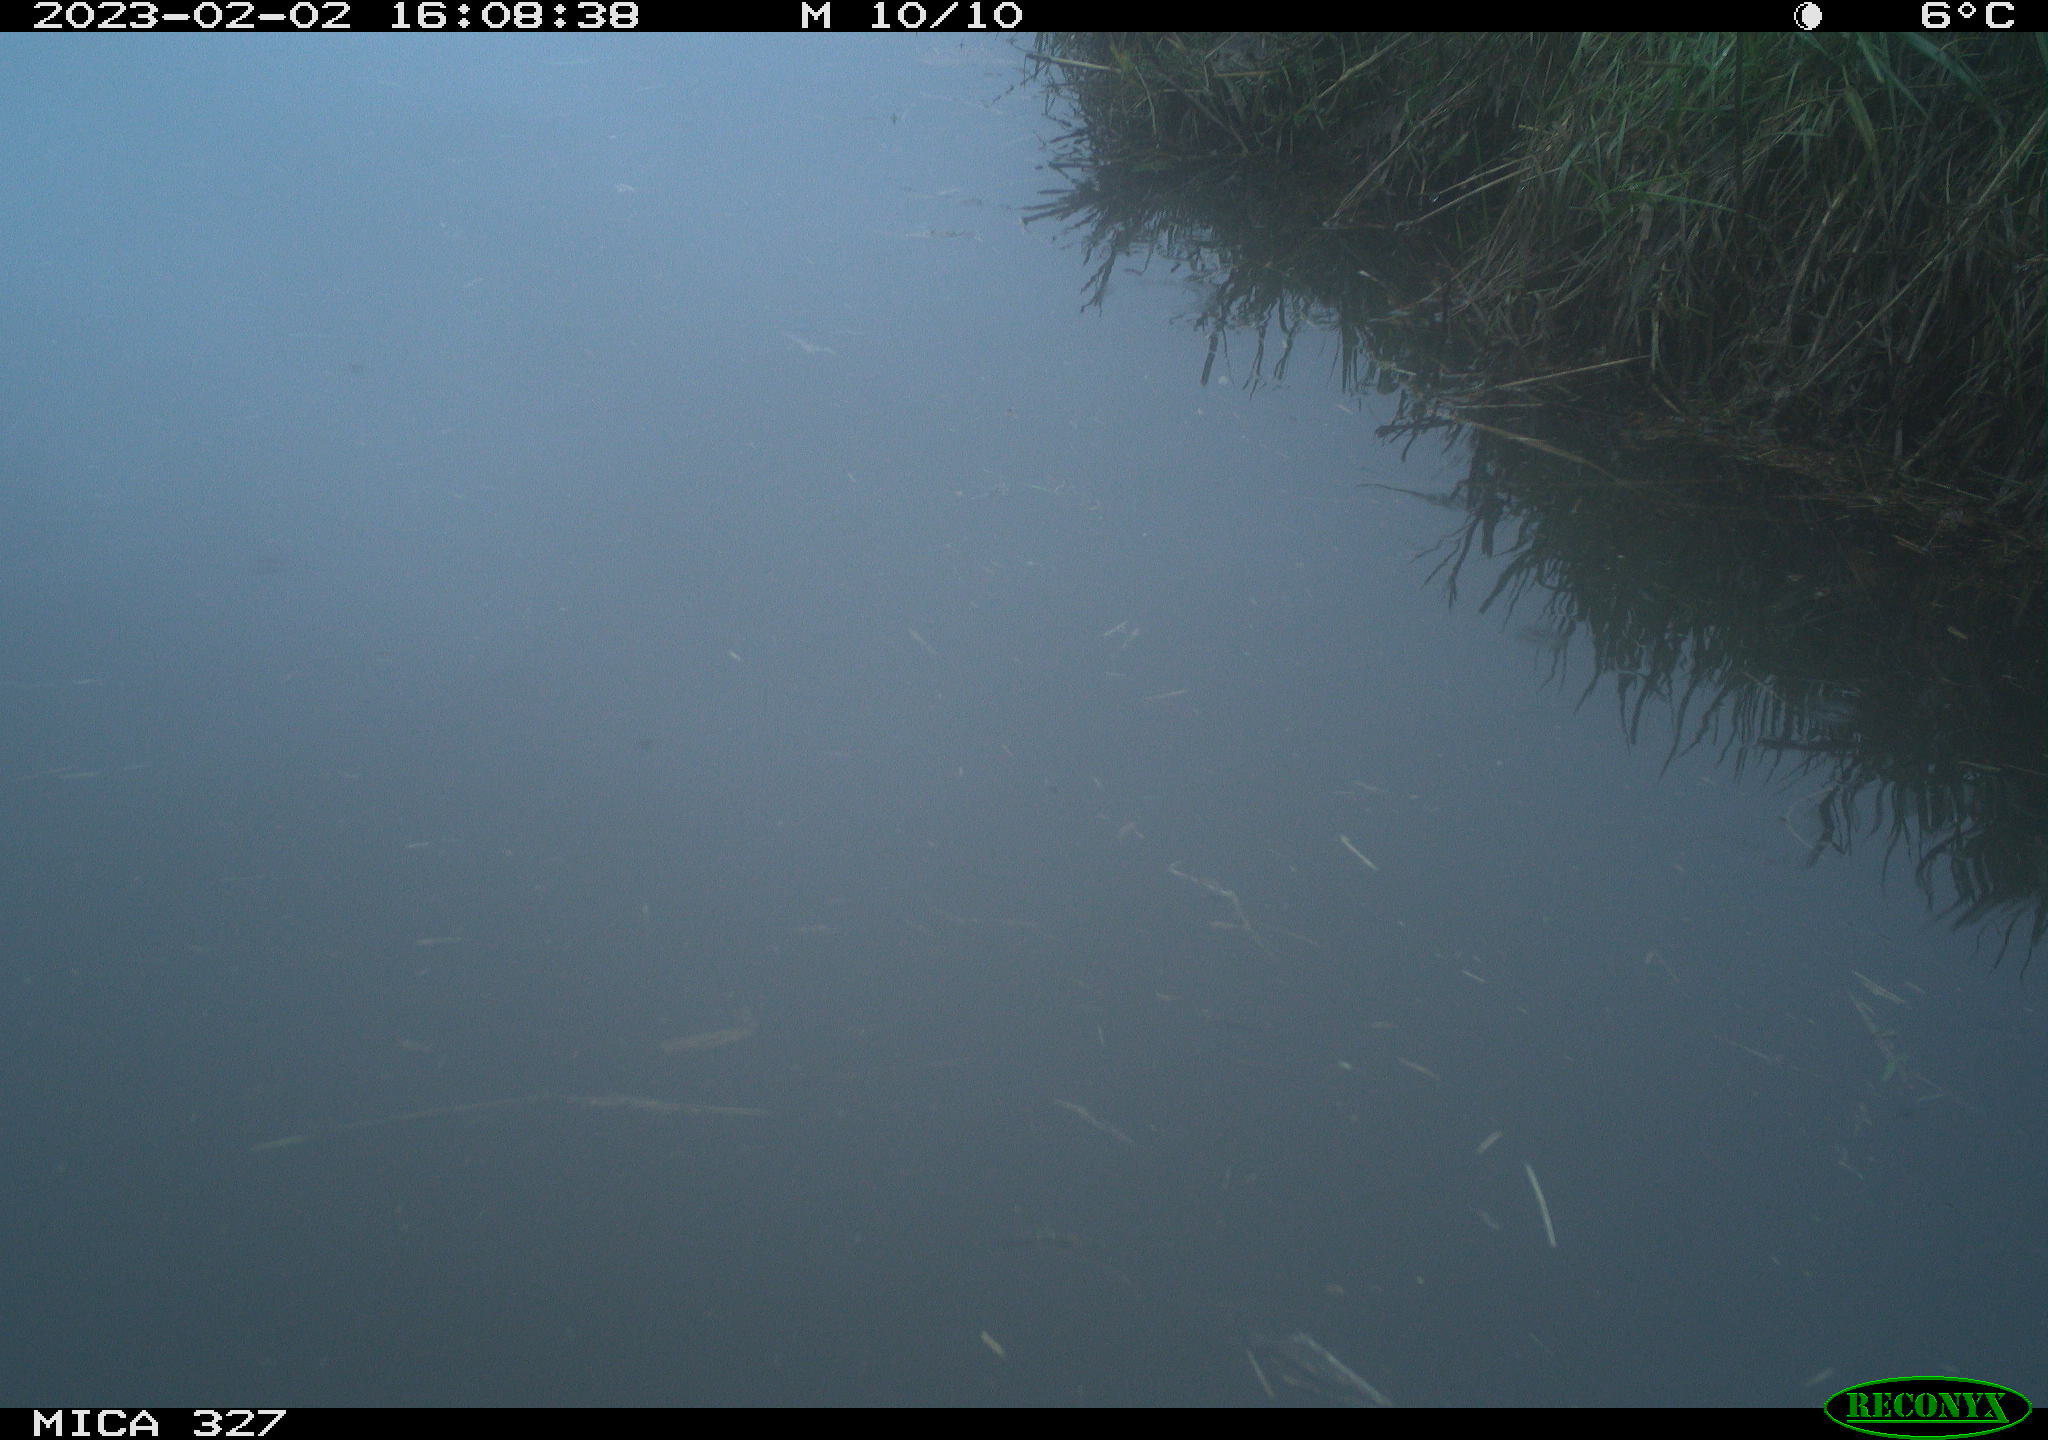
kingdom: Animalia
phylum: Chordata
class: Aves
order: Gruiformes
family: Rallidae
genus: Gallinula
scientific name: Gallinula chloropus
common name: Common moorhen
